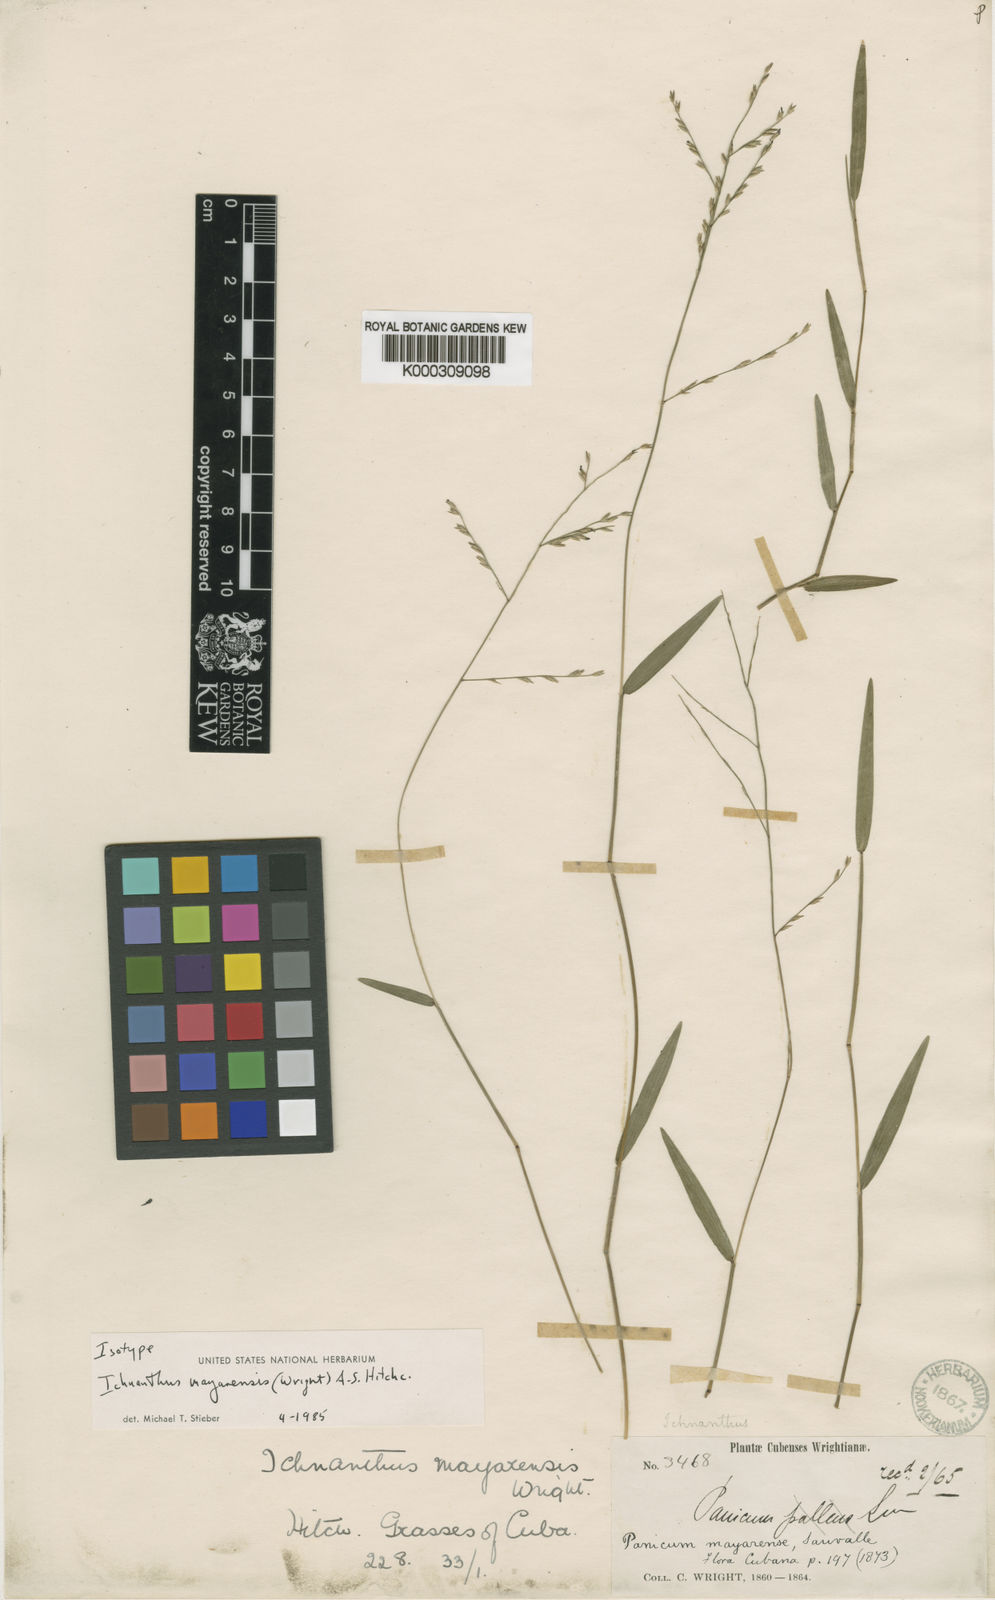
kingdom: Plantae
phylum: Tracheophyta
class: Liliopsida
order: Poales
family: Poaceae
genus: Oedochloa
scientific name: Oedochloa mayarensis
